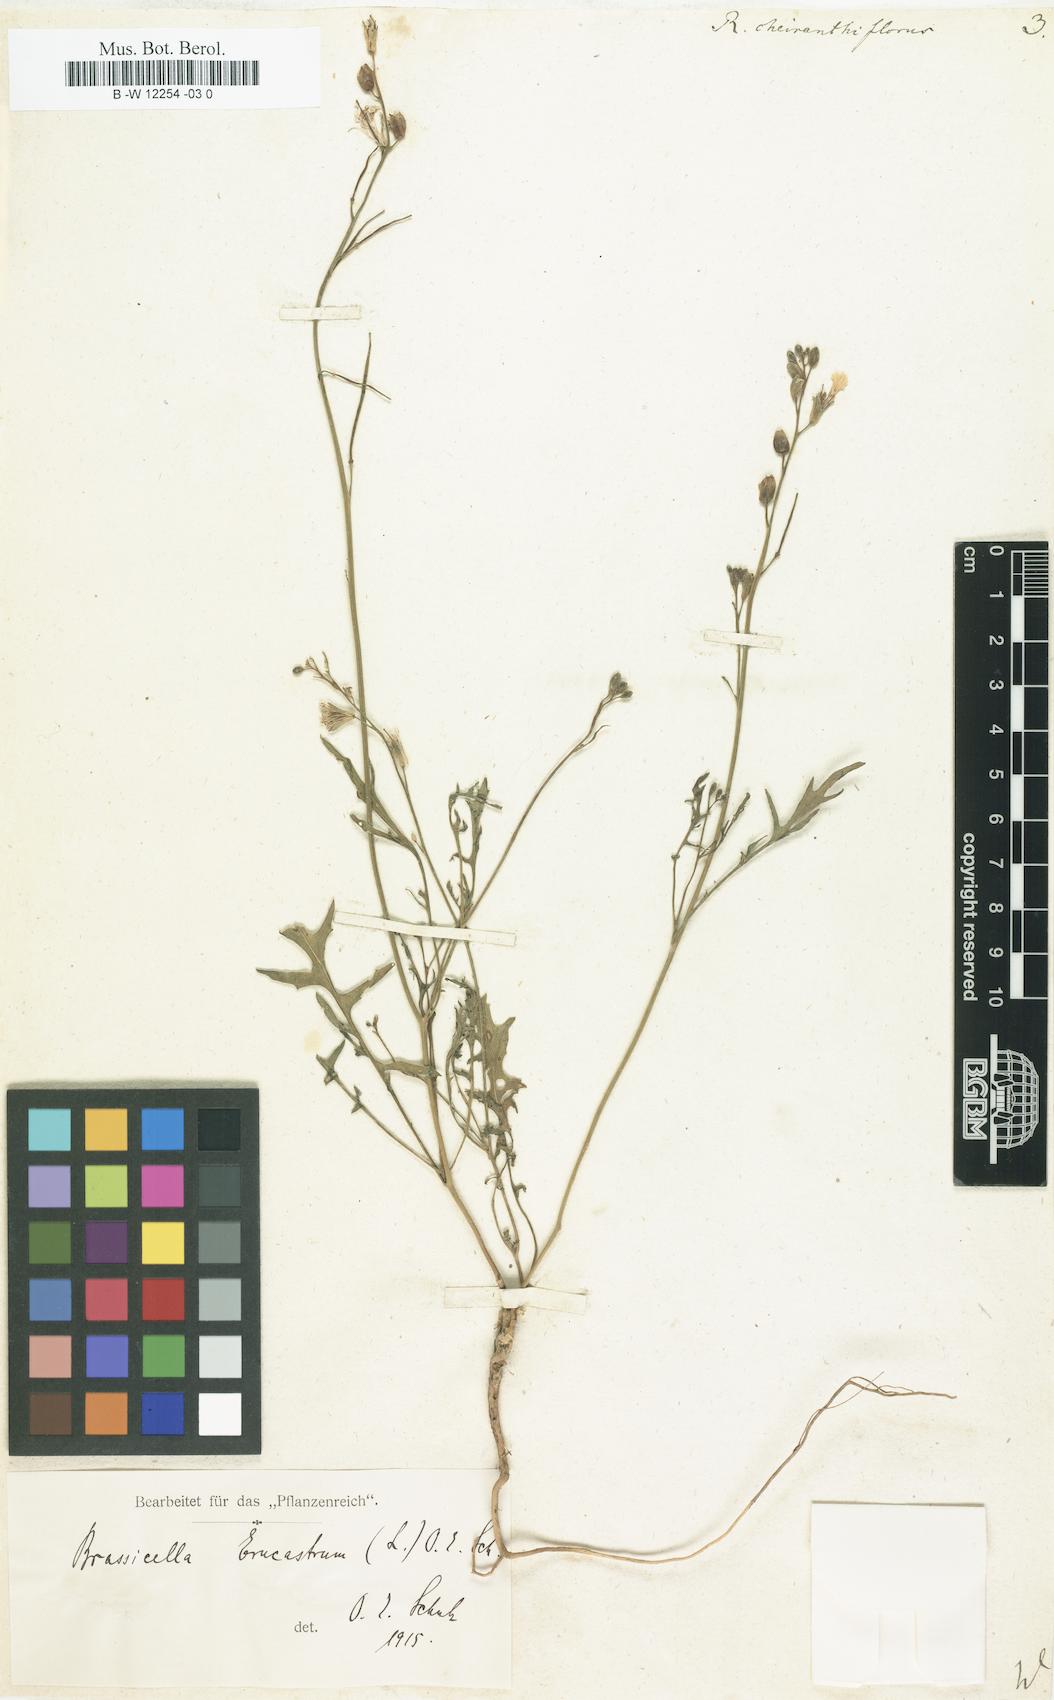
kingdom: Plantae
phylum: Tracheophyta
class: Magnoliopsida
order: Brassicales
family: Brassicaceae
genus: Coincya
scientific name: Coincya monensis
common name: Star-mustard
